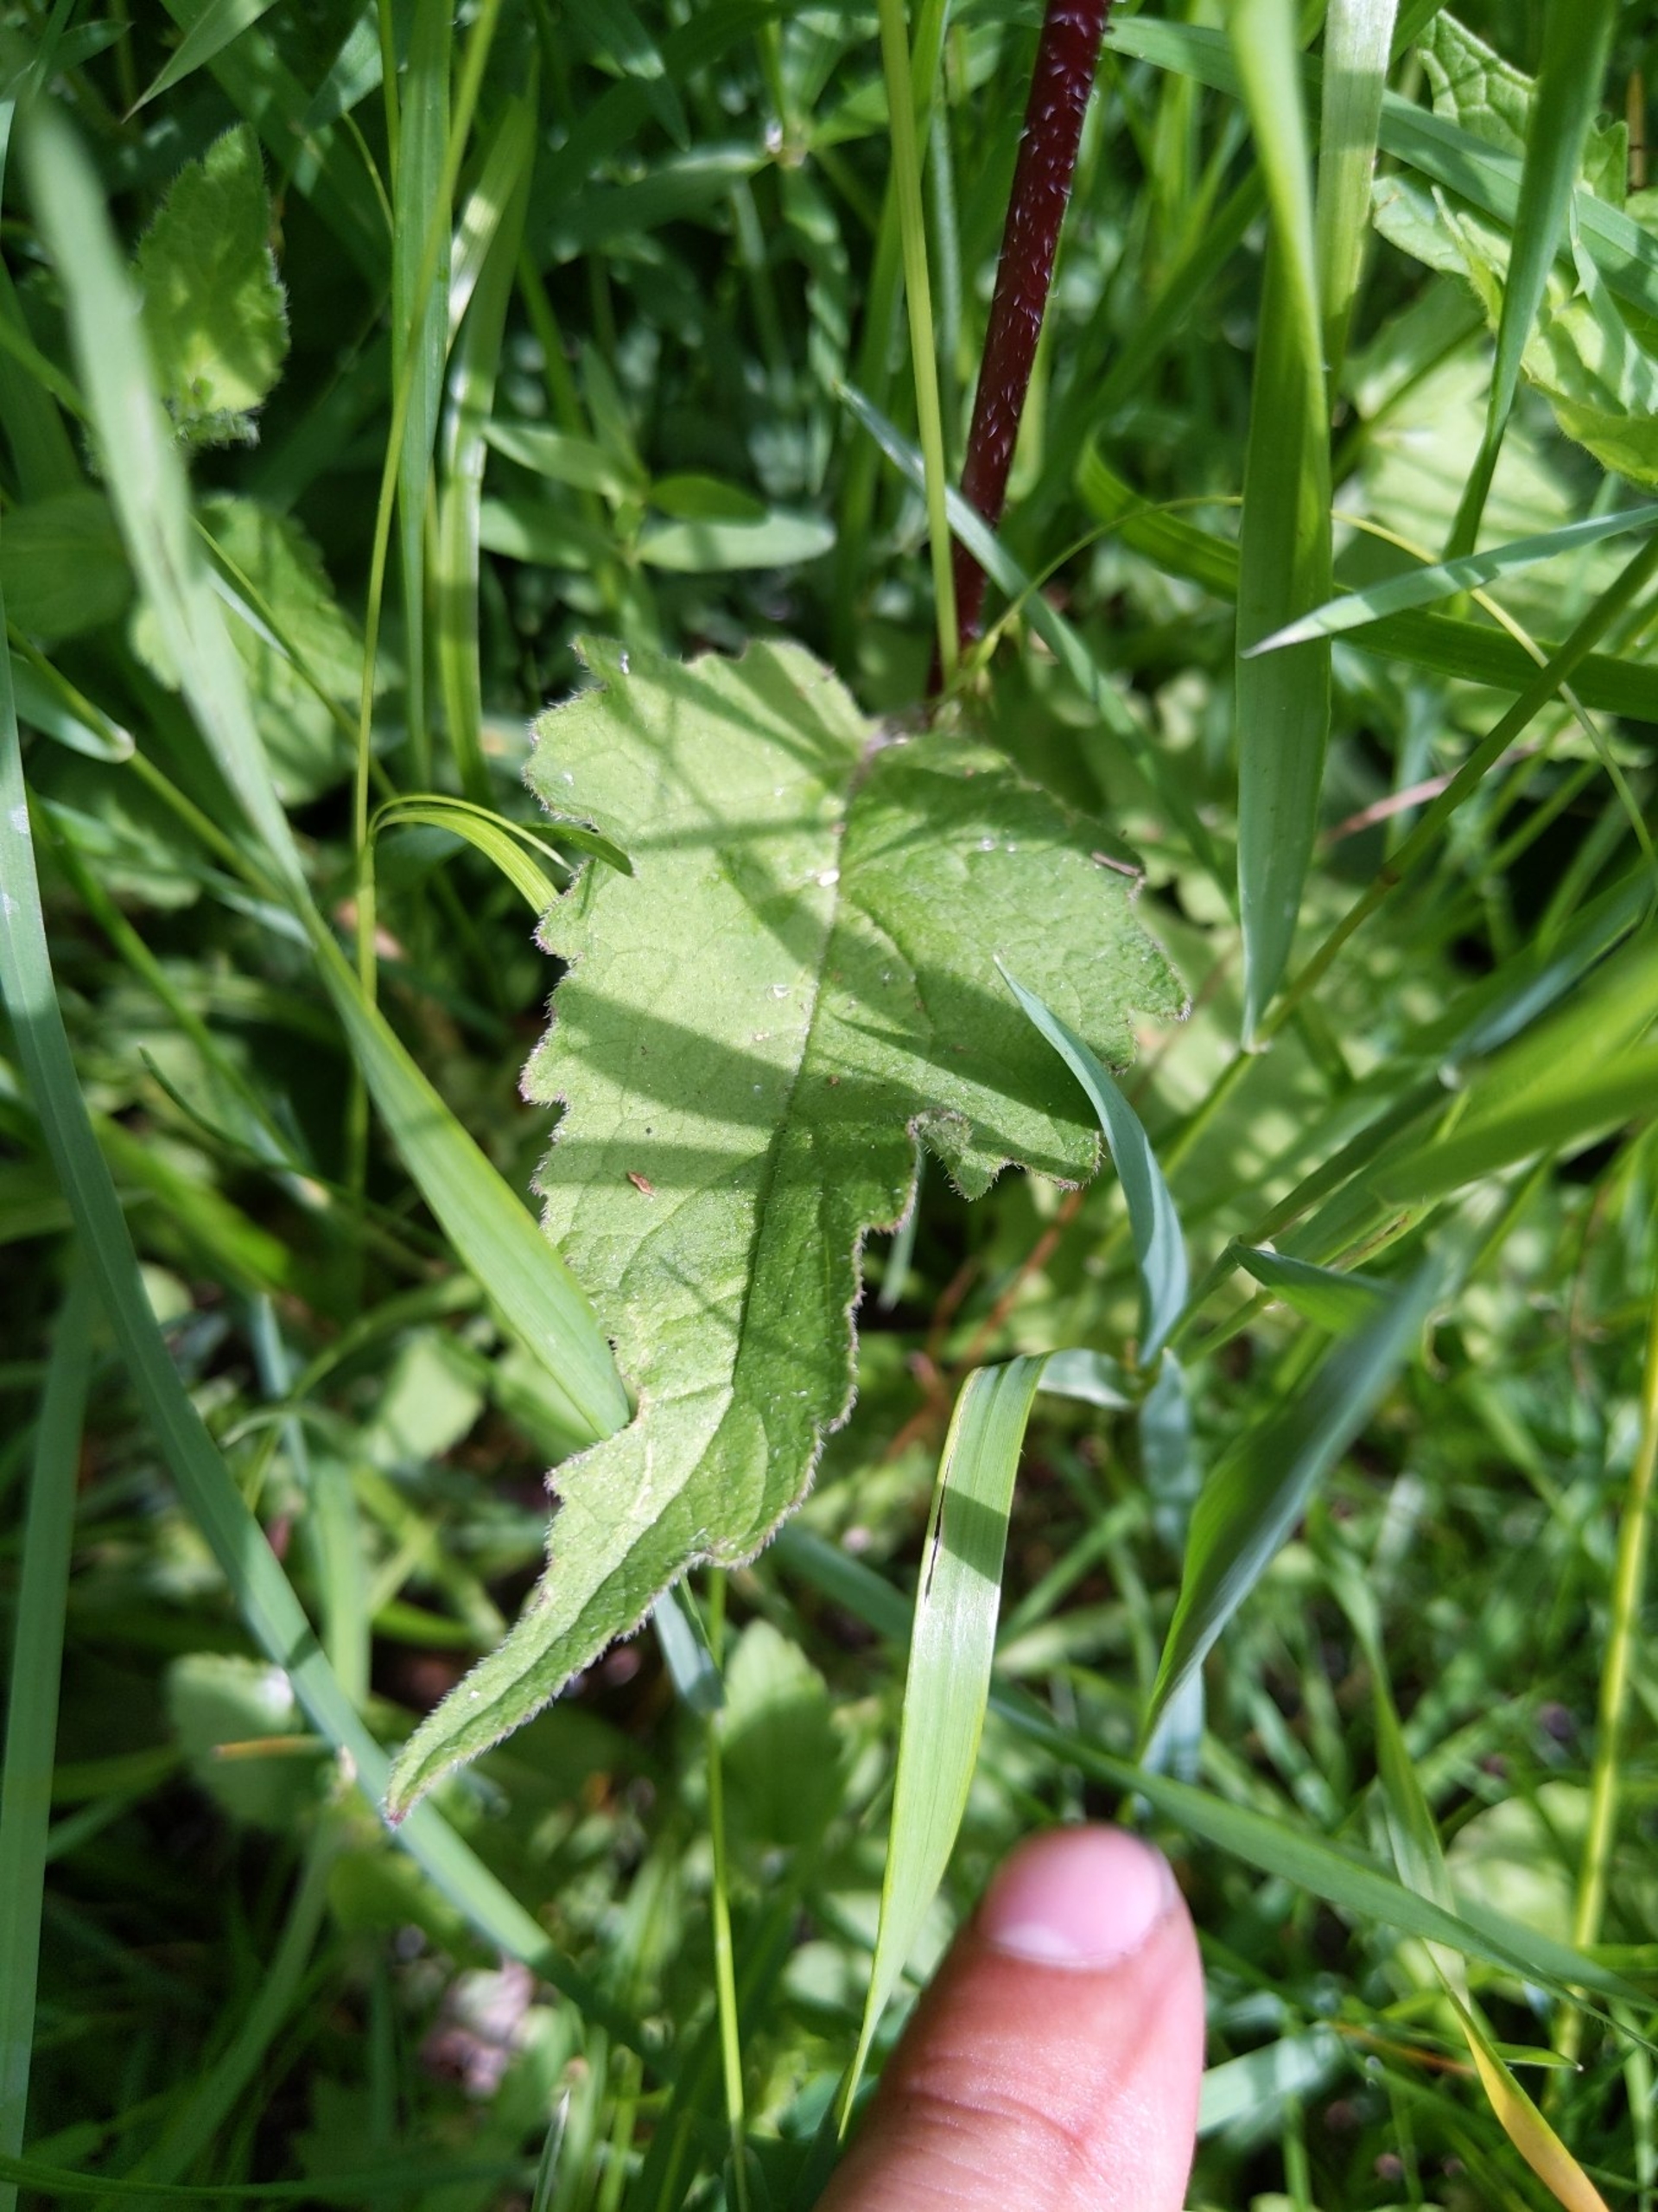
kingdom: Plantae
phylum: Tracheophyta
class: Magnoliopsida
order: Asterales
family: Campanulaceae
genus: Campanula
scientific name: Campanula trachelium
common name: Nælde-klokke
